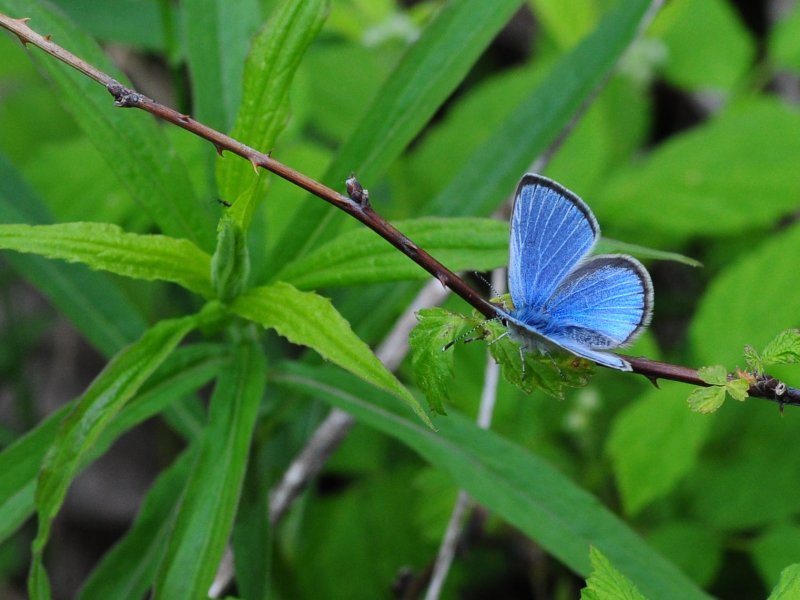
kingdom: Animalia
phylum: Arthropoda
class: Insecta
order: Lepidoptera
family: Lycaenidae
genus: Glaucopsyche
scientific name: Glaucopsyche lygdamus
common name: Silvery Blue
